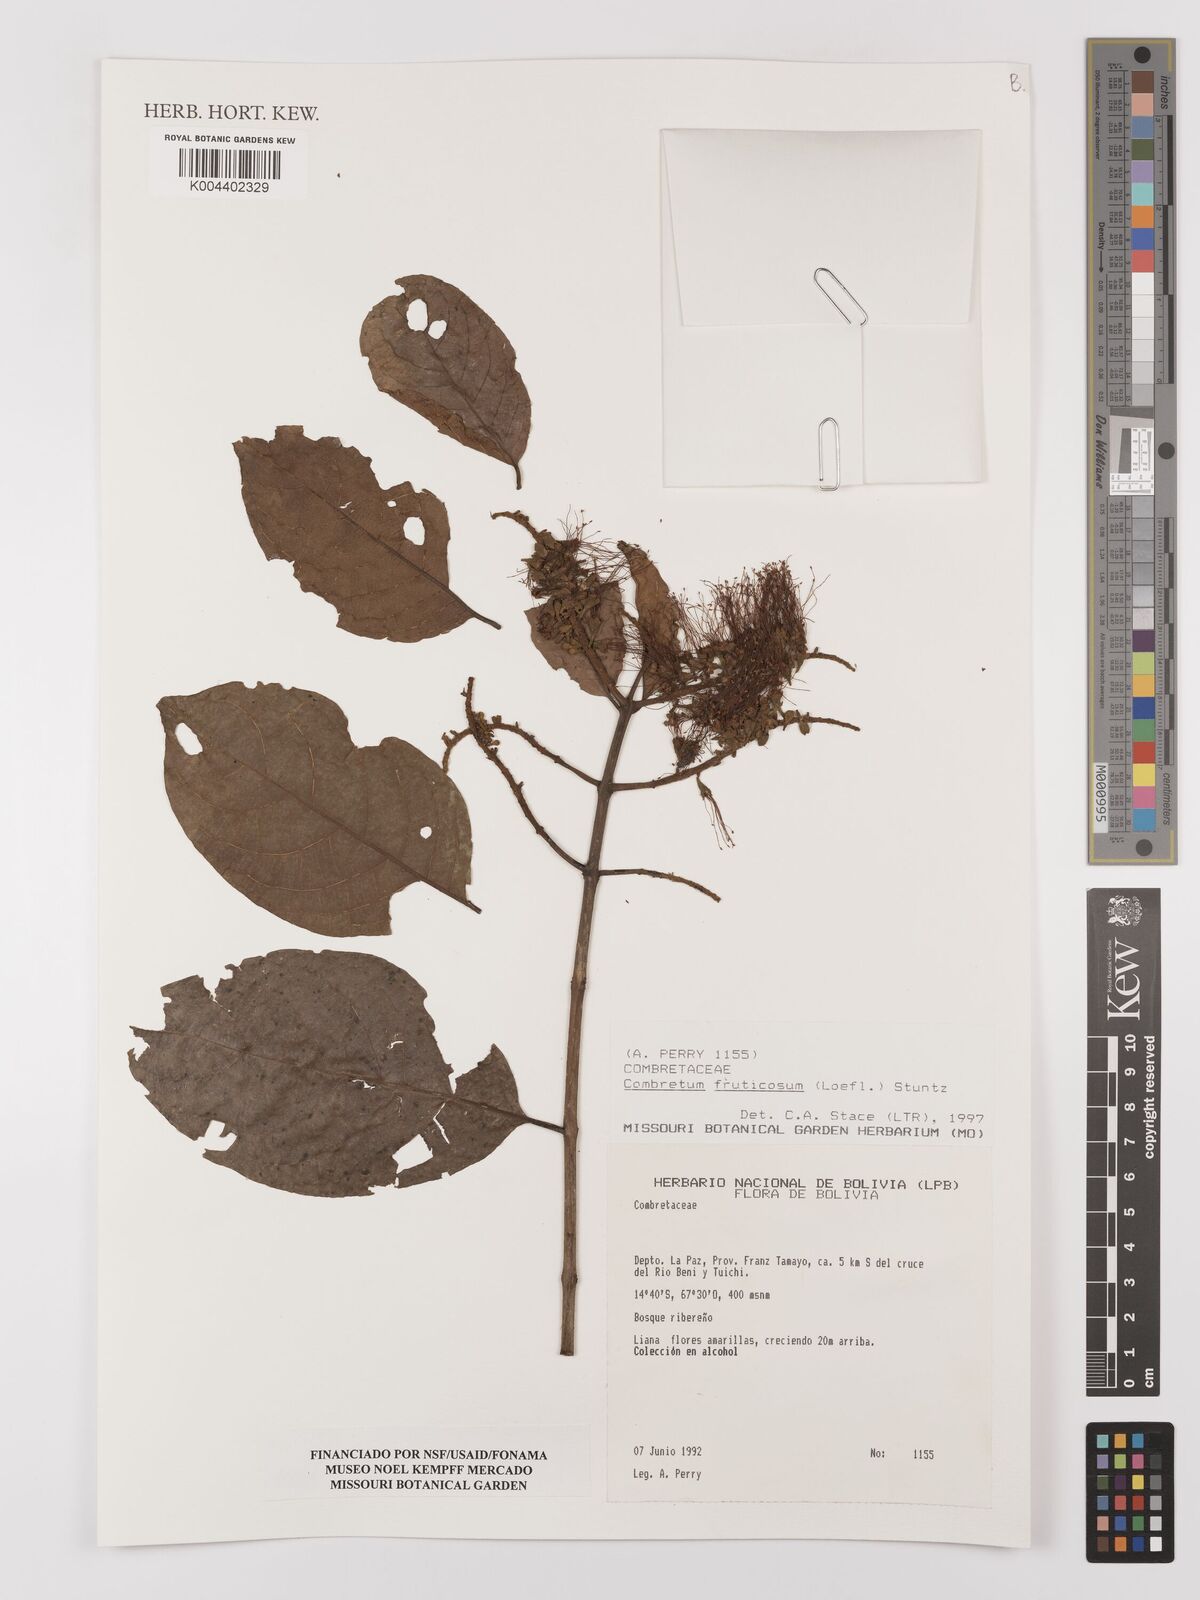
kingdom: Plantae
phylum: Tracheophyta
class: Magnoliopsida
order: Myrtales
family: Combretaceae
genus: Combretum
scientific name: Combretum fruticosum
